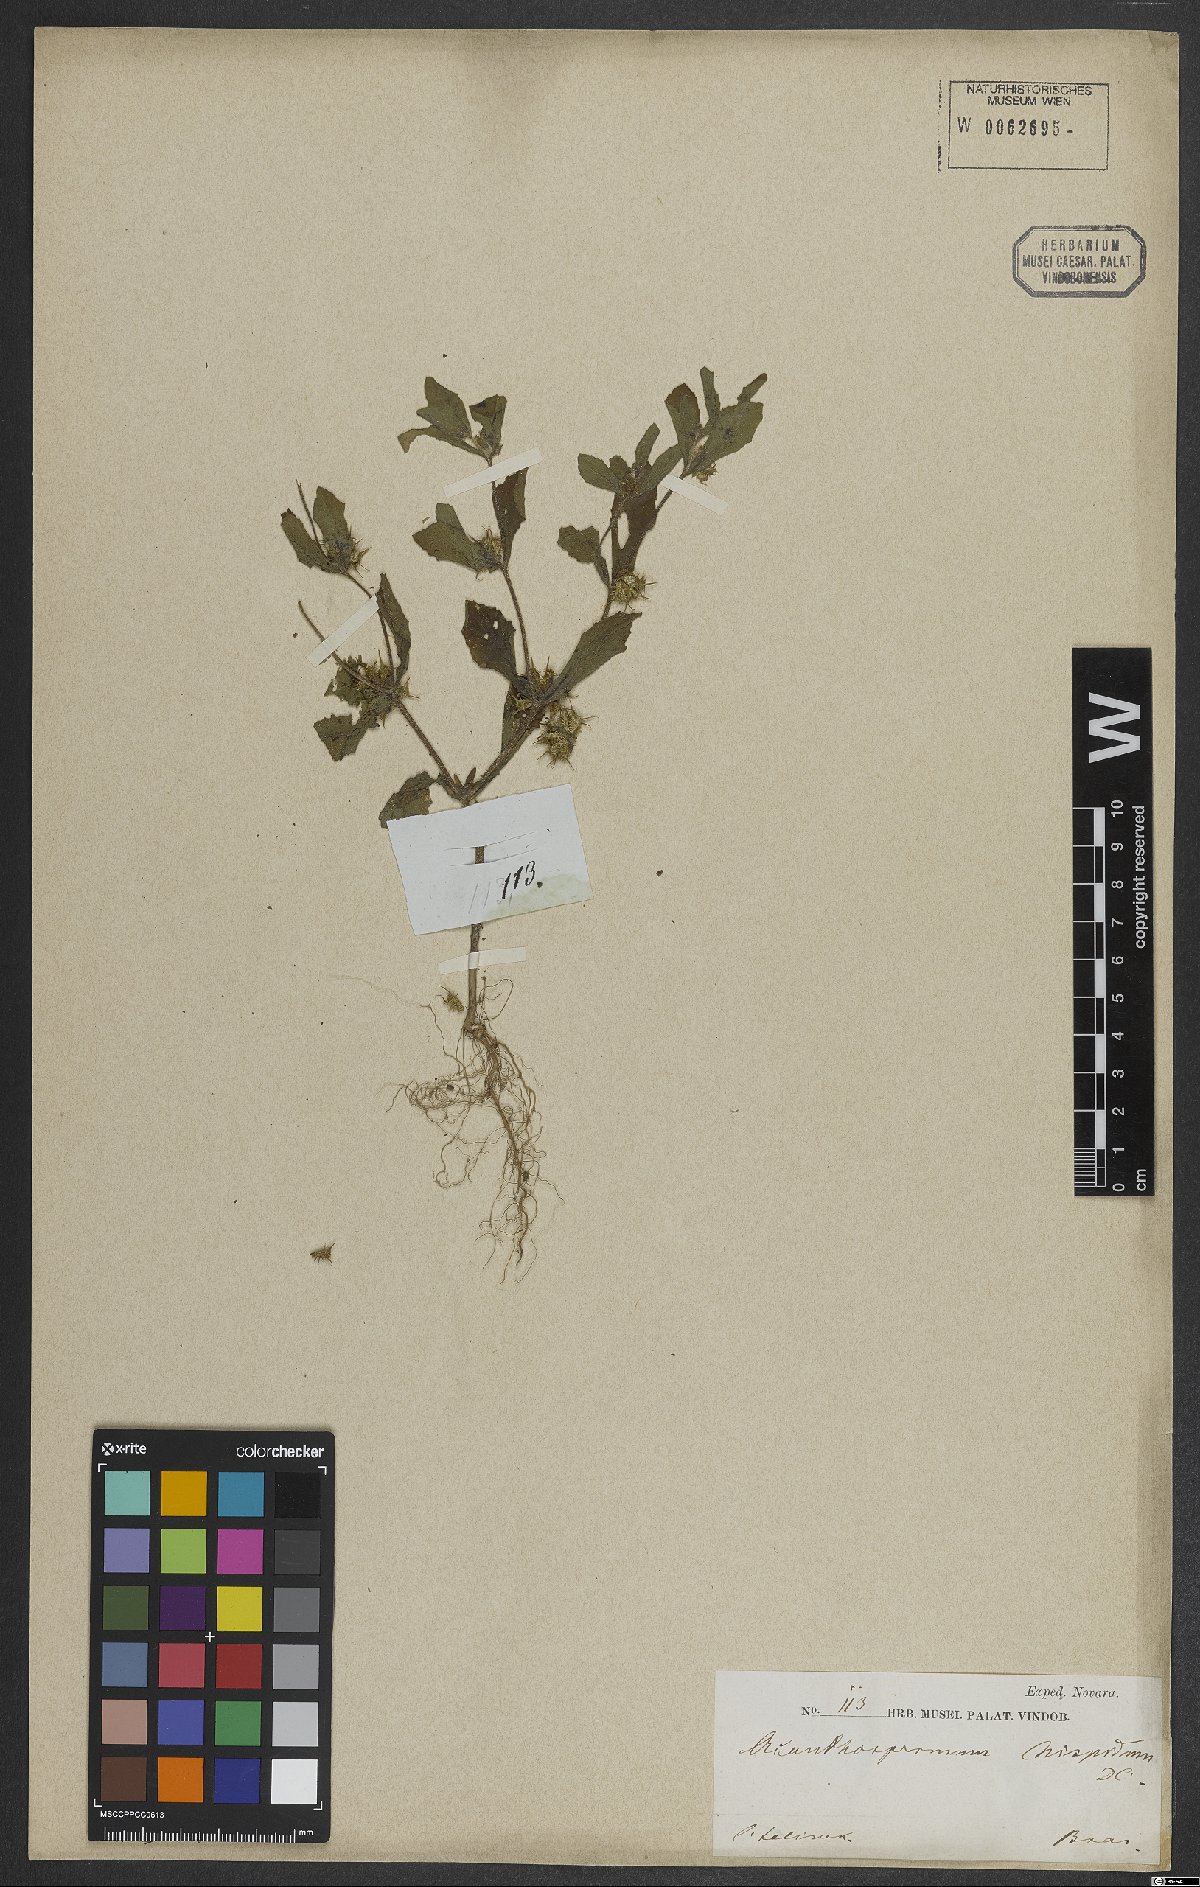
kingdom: Plantae
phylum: Tracheophyta
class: Magnoliopsida
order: Asterales
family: Asteraceae
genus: Acanthospermum
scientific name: Acanthospermum hispidum
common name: Hispid starbur
